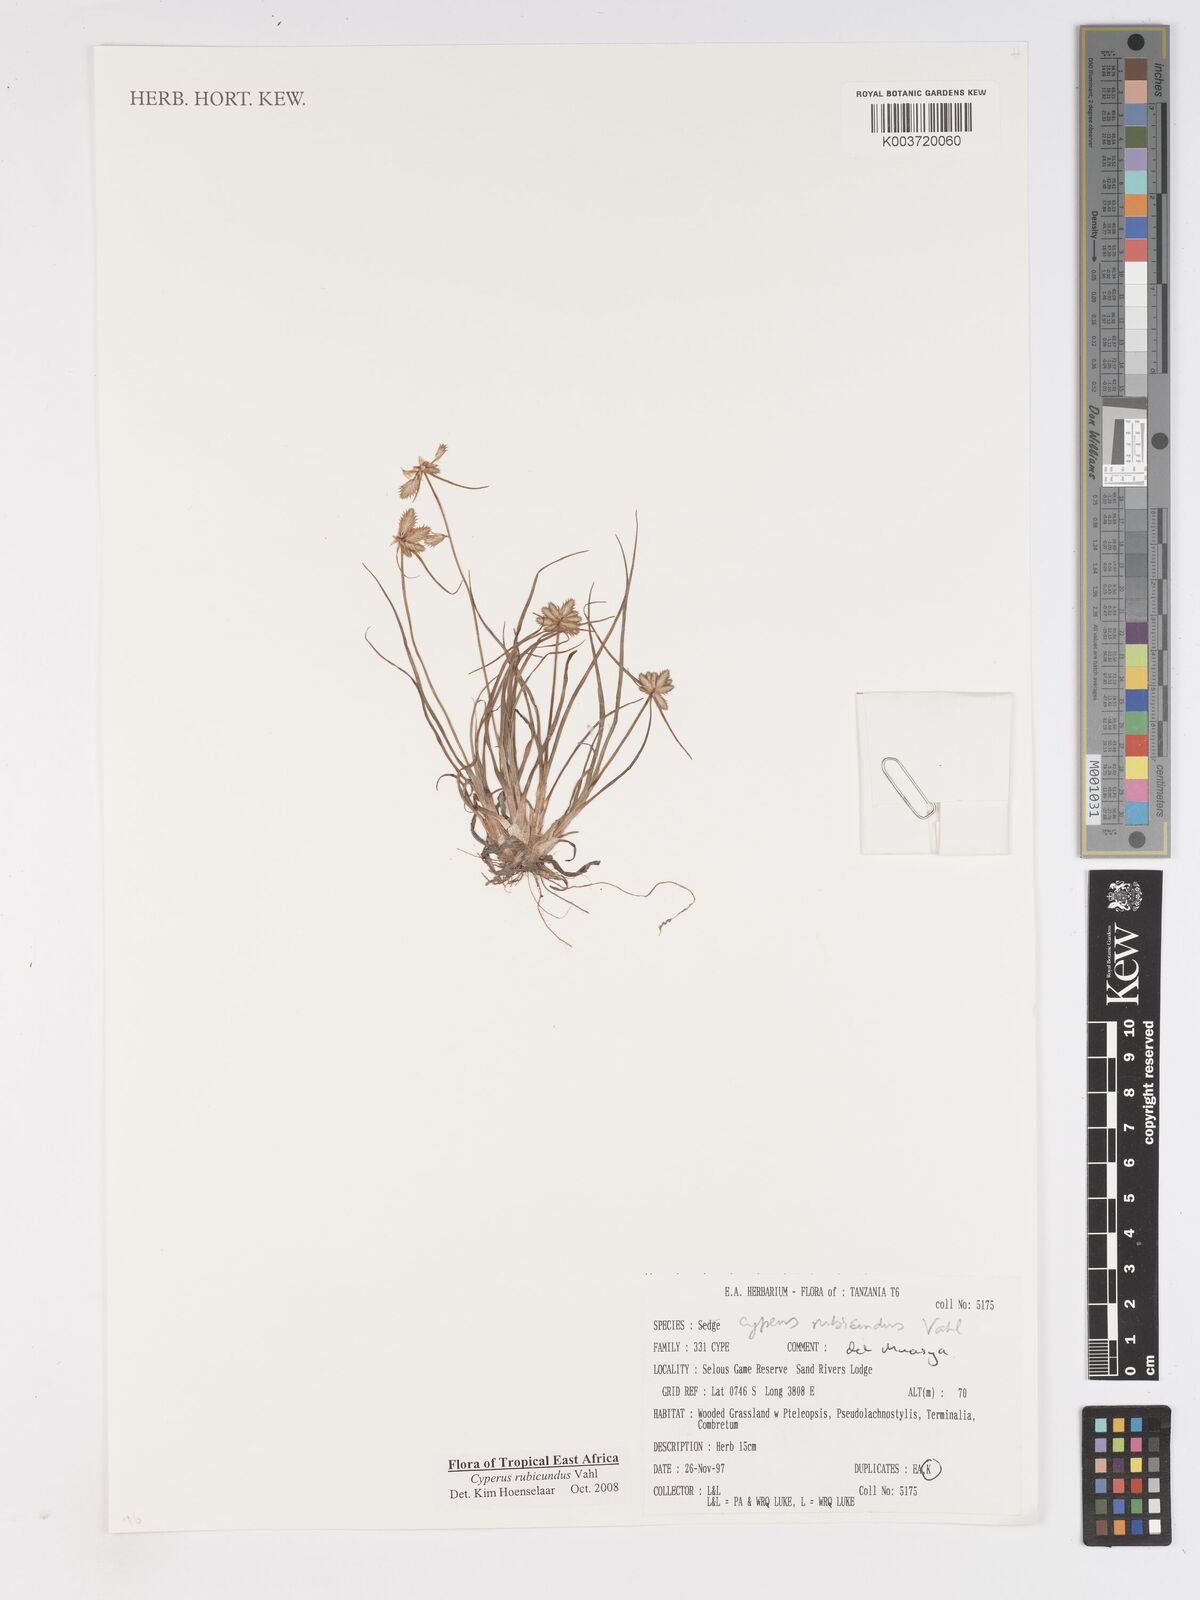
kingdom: Plantae
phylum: Tracheophyta
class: Liliopsida
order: Poales
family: Cyperaceae
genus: Cyperus
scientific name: Cyperus rubicundus
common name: Coco-grass
